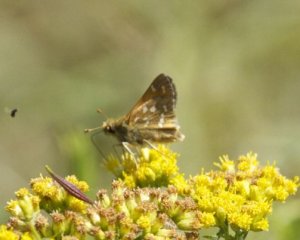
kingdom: Animalia
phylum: Arthropoda
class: Insecta
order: Lepidoptera
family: Hesperiidae
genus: Hesperia
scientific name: Hesperia comma
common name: Common Branded Skipper
